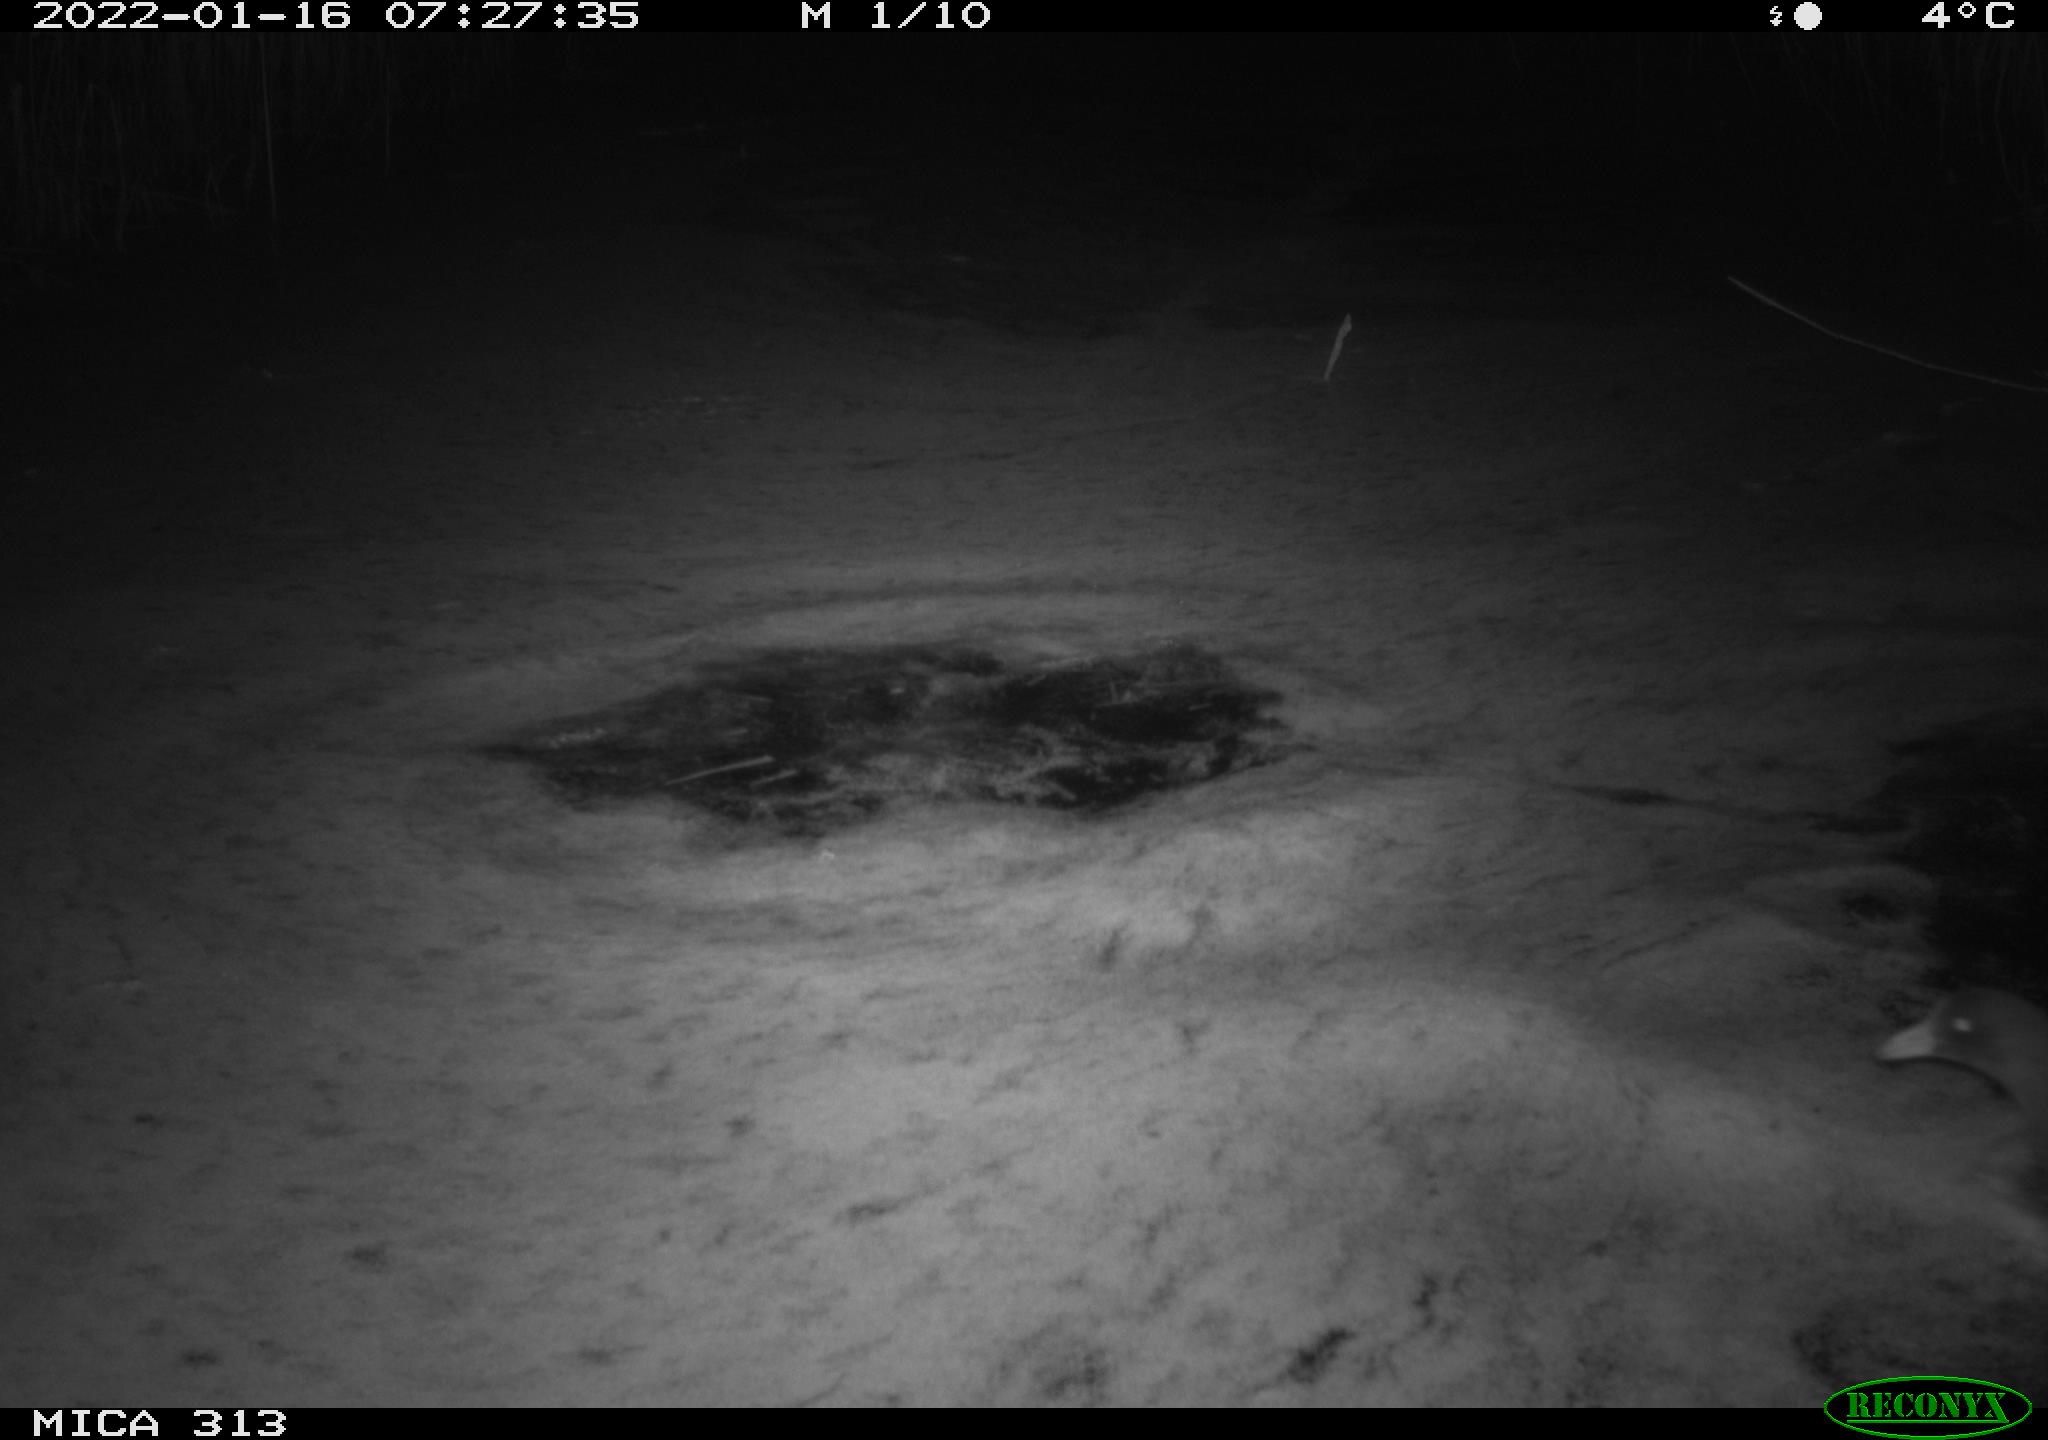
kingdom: Animalia
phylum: Chordata
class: Aves
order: Anseriformes
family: Anatidae
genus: Anas
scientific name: Anas
